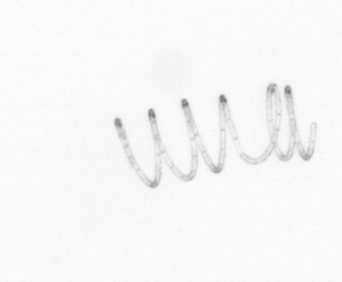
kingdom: Chromista
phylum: Ochrophyta
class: Bacillariophyceae
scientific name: Bacillariophyceae
